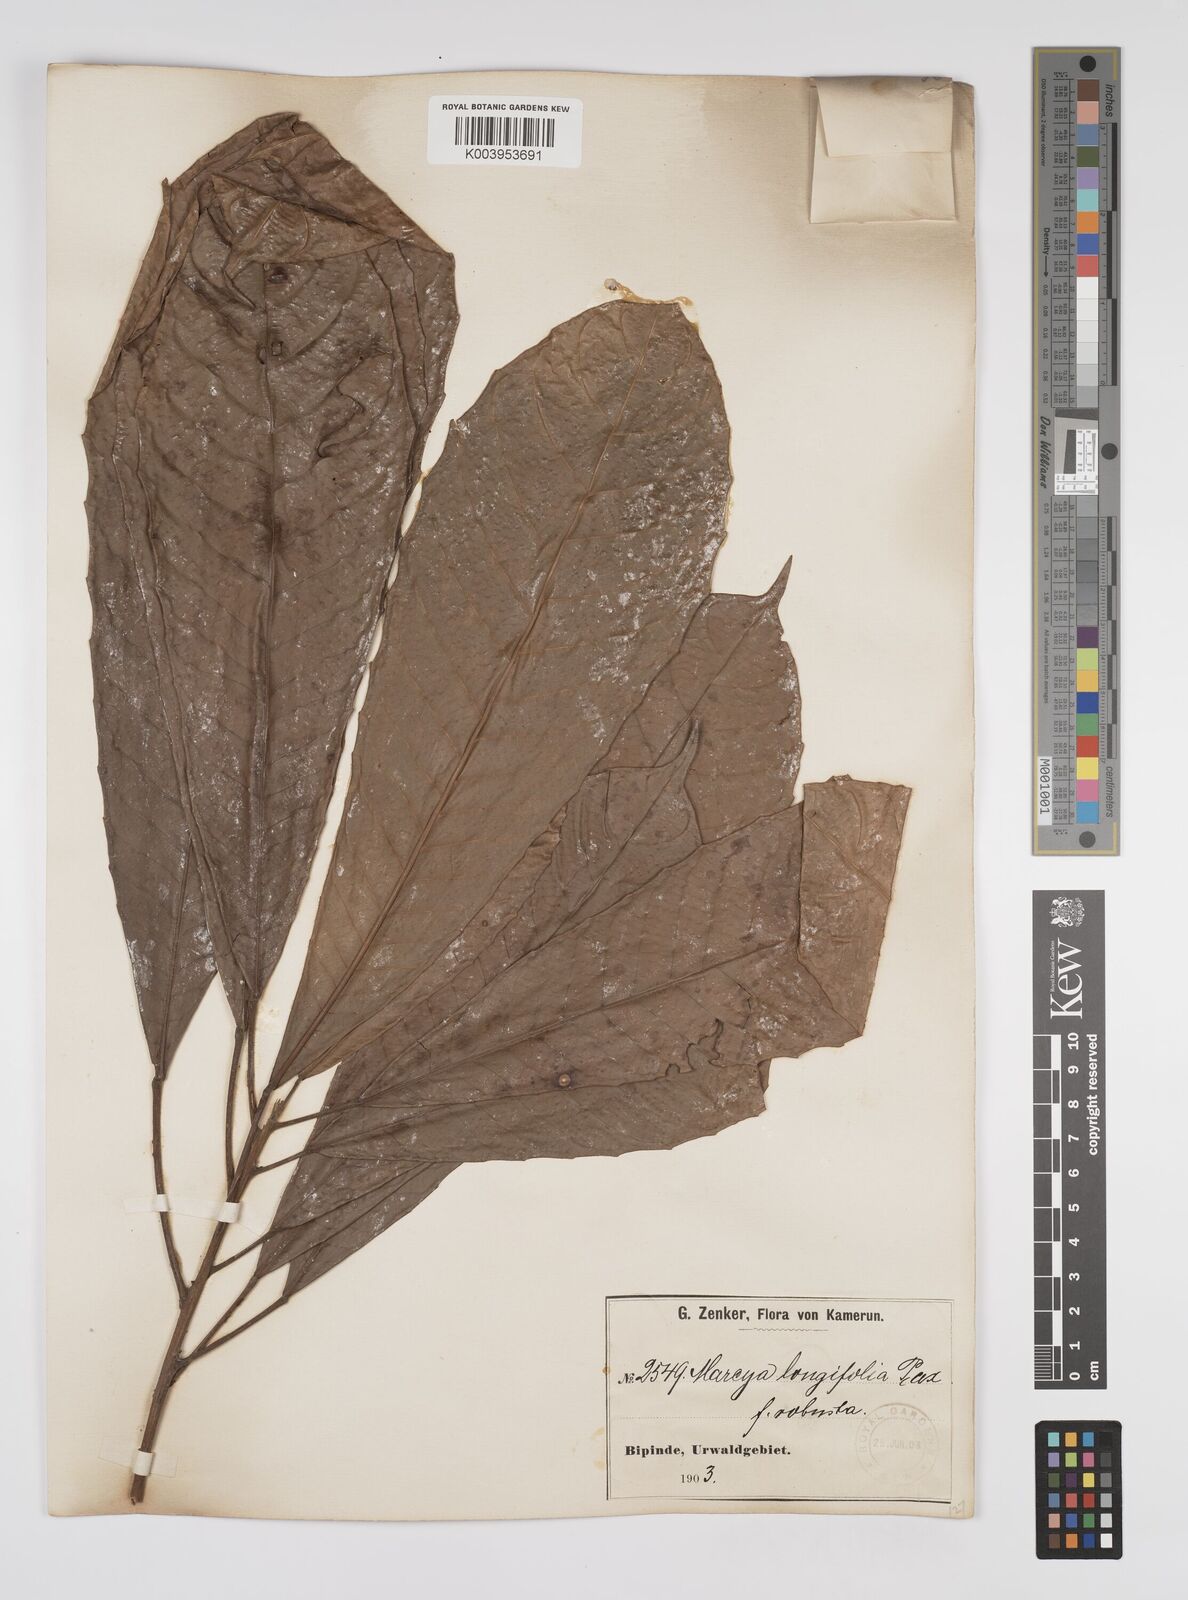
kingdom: Plantae
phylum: Tracheophyta
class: Magnoliopsida
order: Malpighiales
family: Euphorbiaceae
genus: Mareyopsis
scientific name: Mareyopsis longifolia
